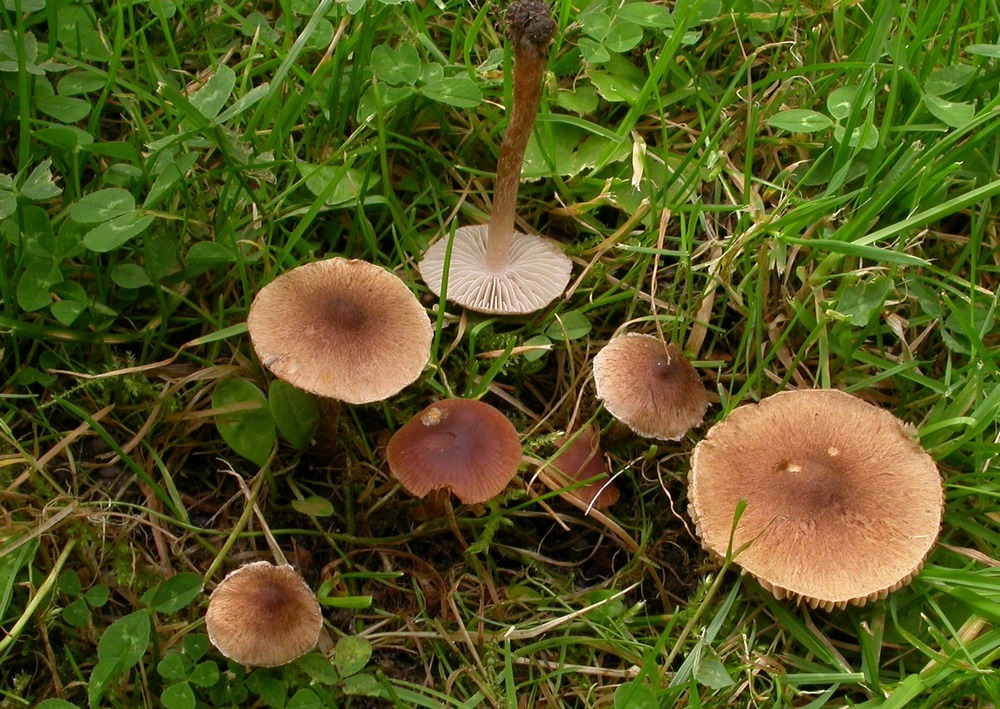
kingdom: Fungi
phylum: Basidiomycota
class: Agaricomycetes
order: Agaricales
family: Inocybaceae
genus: Inocybe
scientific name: Inocybe curvipes
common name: plæne-trævlhat
